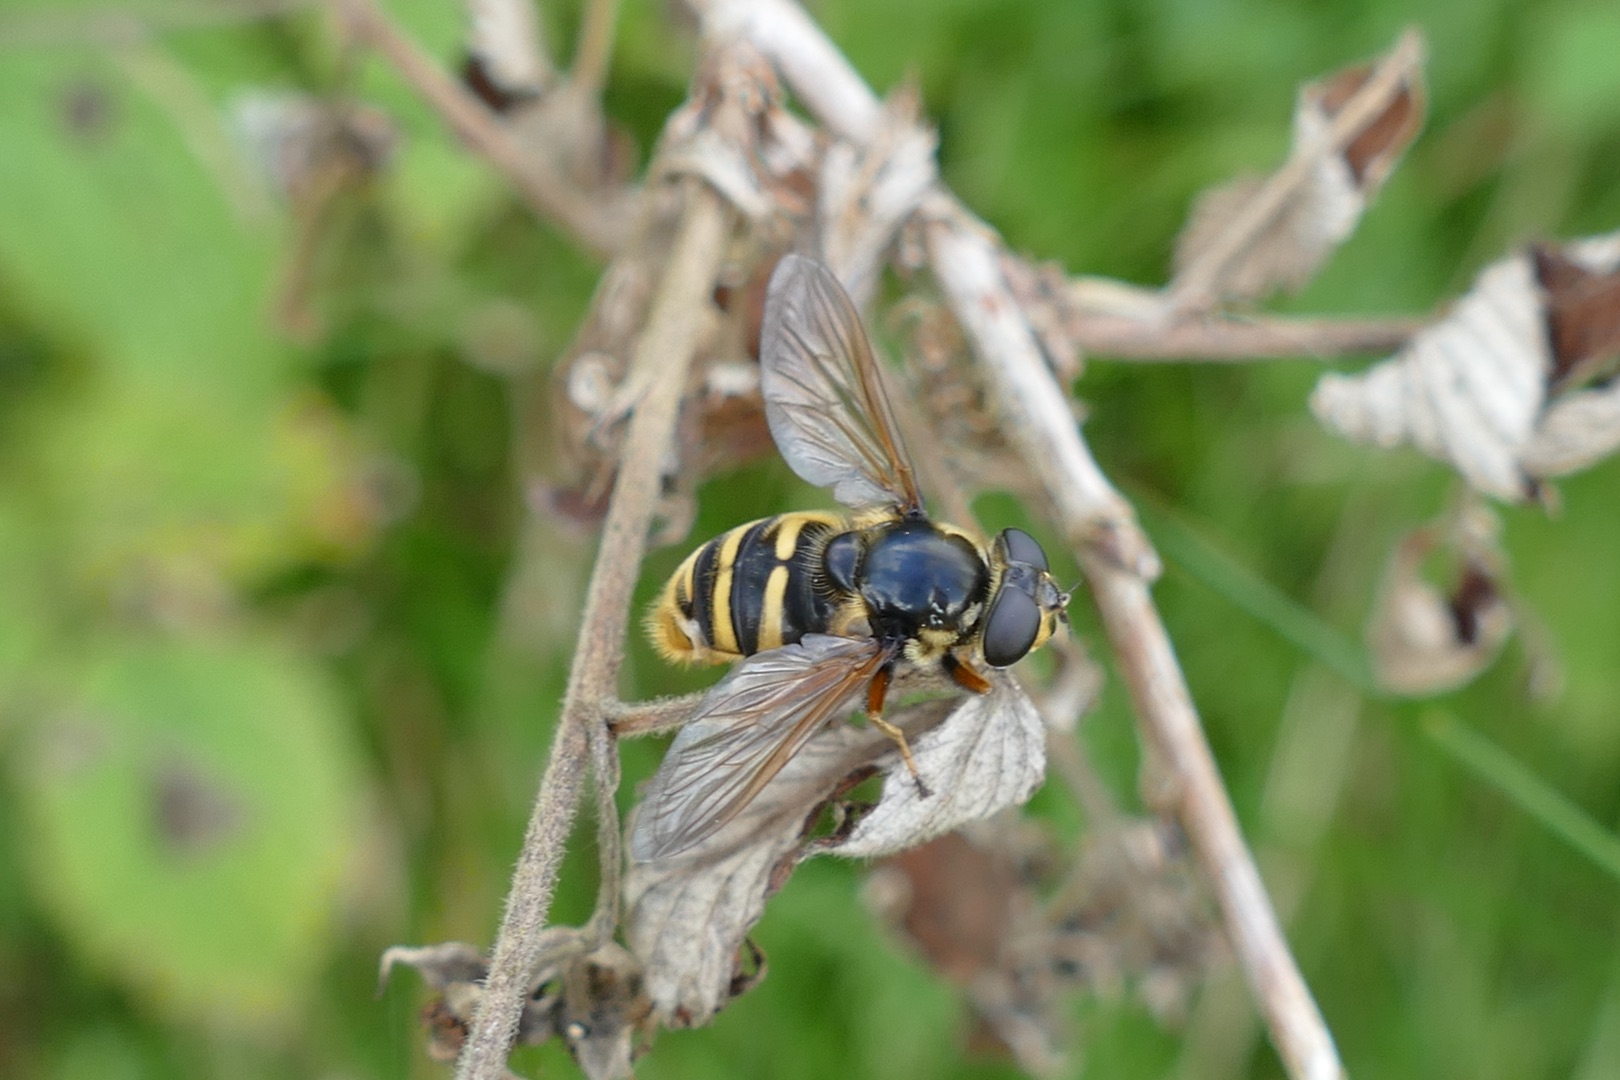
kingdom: Animalia
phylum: Arthropoda
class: Insecta
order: Diptera
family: Syrphidae
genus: Sericomyia
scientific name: Sericomyia silentis
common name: Tørve-silkesvirreflue
